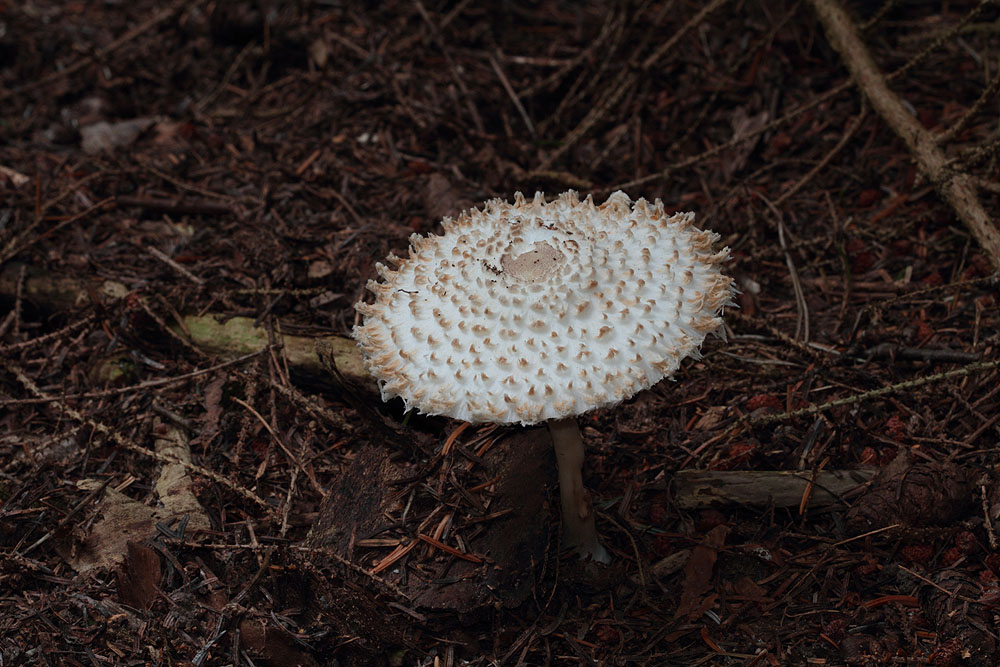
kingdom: Fungi
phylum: Basidiomycota
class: Agaricomycetes
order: Agaricales
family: Agaricaceae
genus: Leucoagaricus
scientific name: Leucoagaricus nympharum
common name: gran-silkehat
